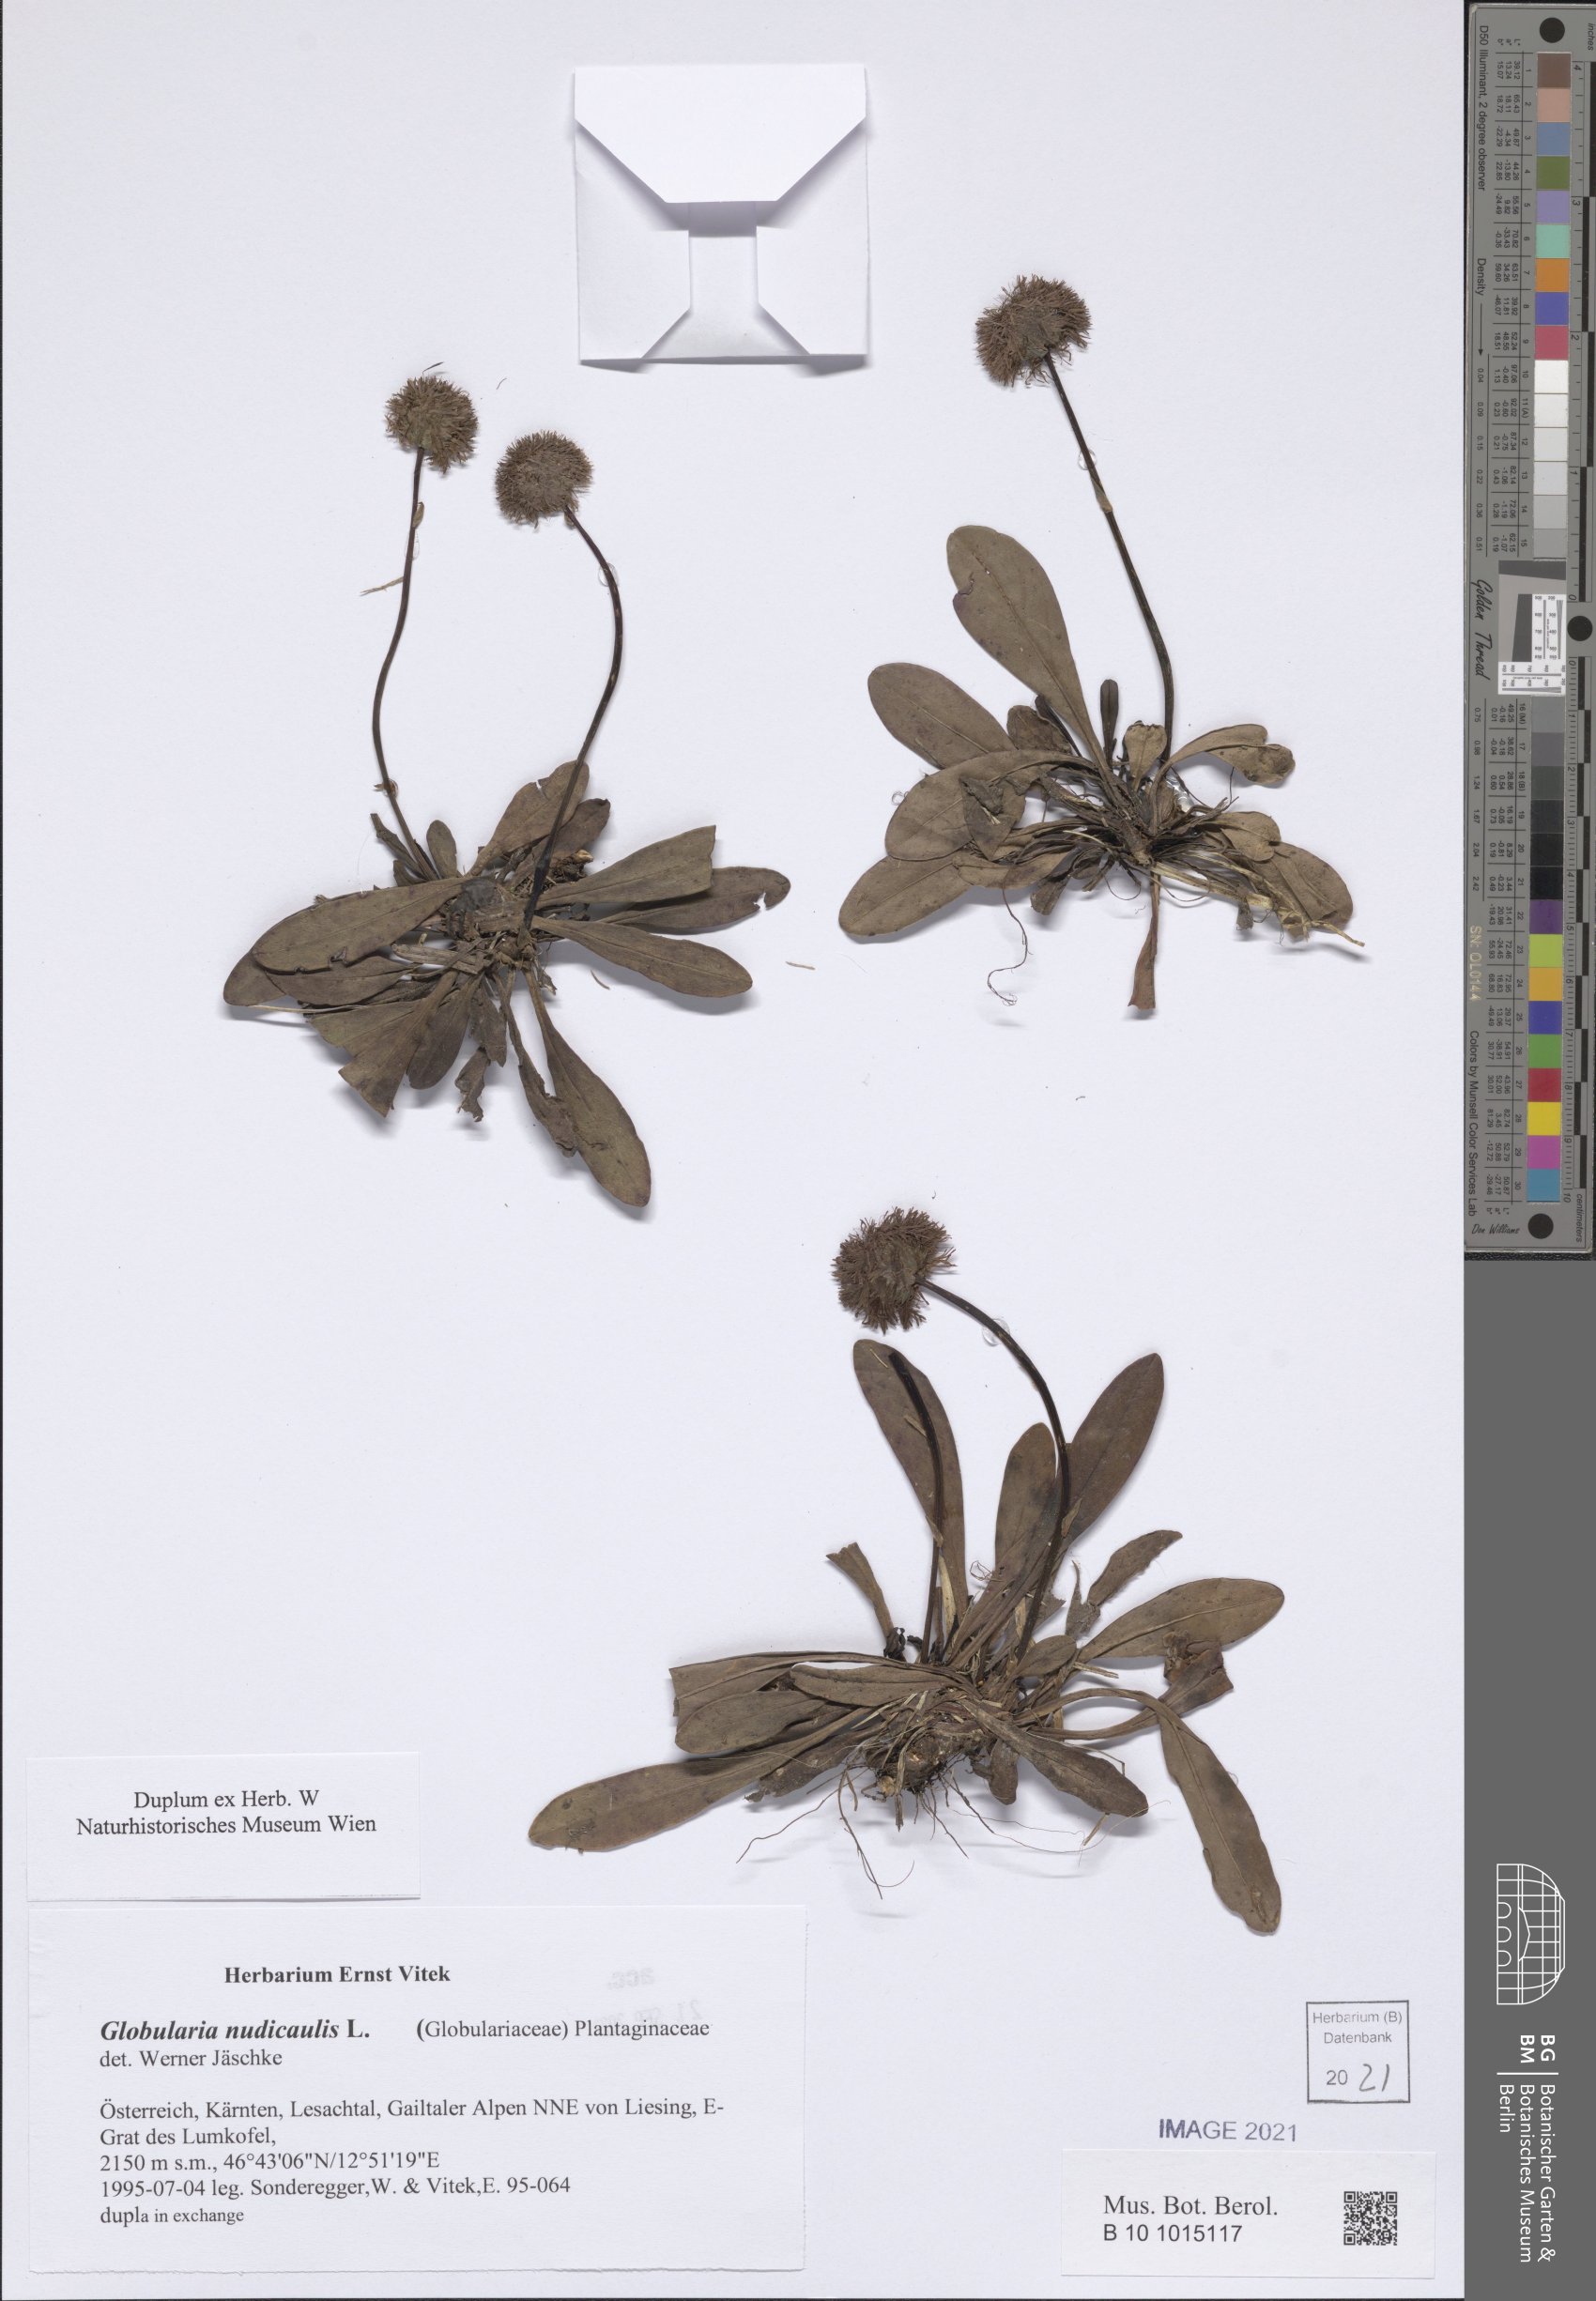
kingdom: Plantae
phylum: Tracheophyta
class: Magnoliopsida
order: Lamiales
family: Plantaginaceae
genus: Globularia
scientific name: Globularia nudicaulis
